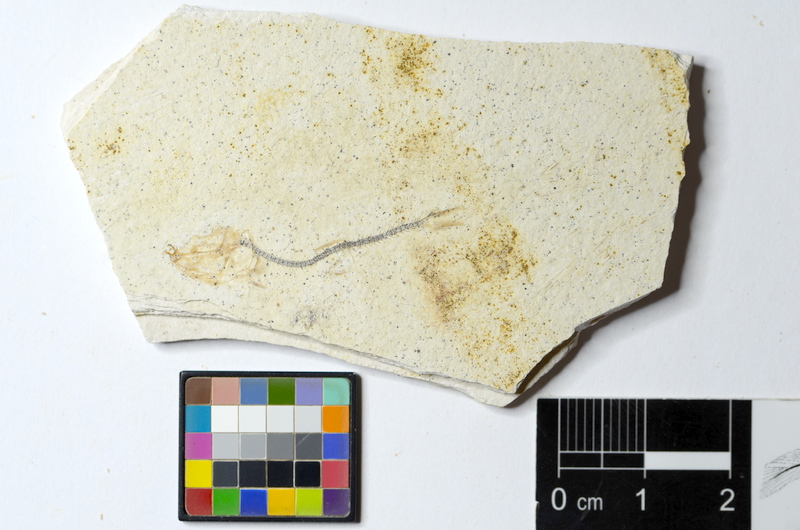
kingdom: Animalia
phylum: Chordata
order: Salmoniformes
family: Orthogonikleithridae
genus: Orthogonikleithrus
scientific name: Orthogonikleithrus hoelli
